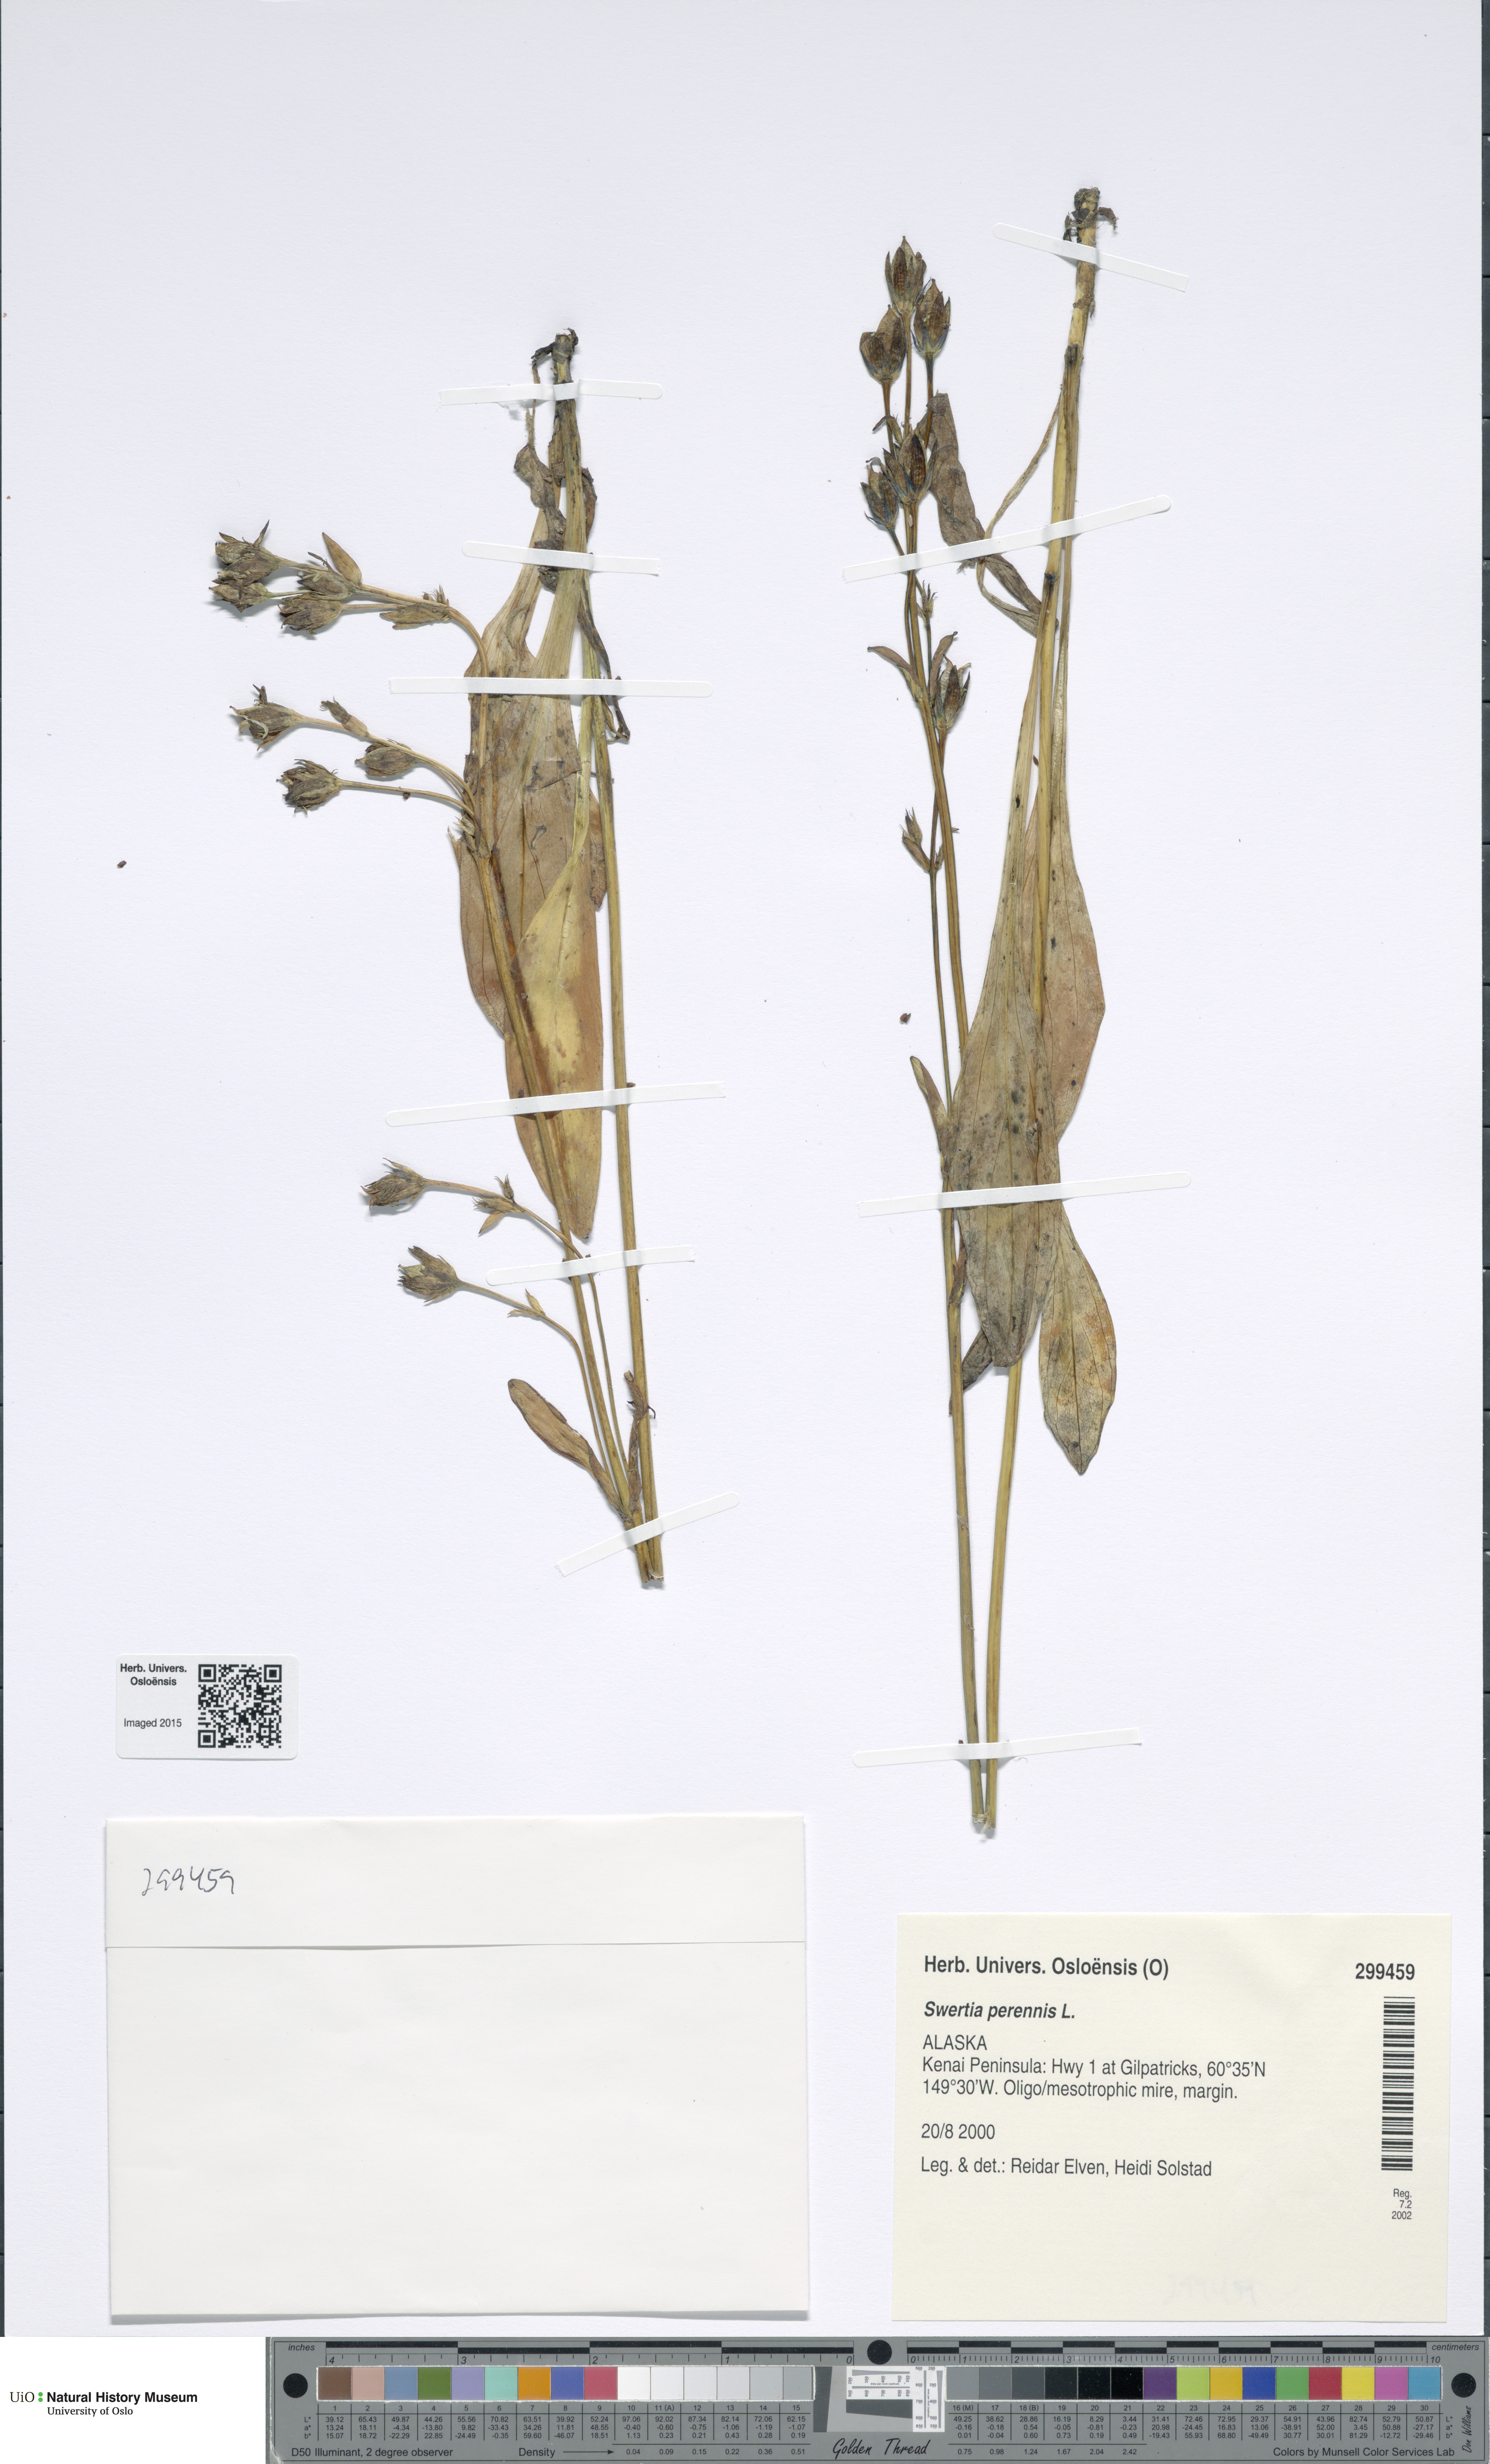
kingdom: Plantae
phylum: Tracheophyta
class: Magnoliopsida
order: Gentianales
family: Gentianaceae
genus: Swertia
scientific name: Swertia perennis
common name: Alpine bog swertia
